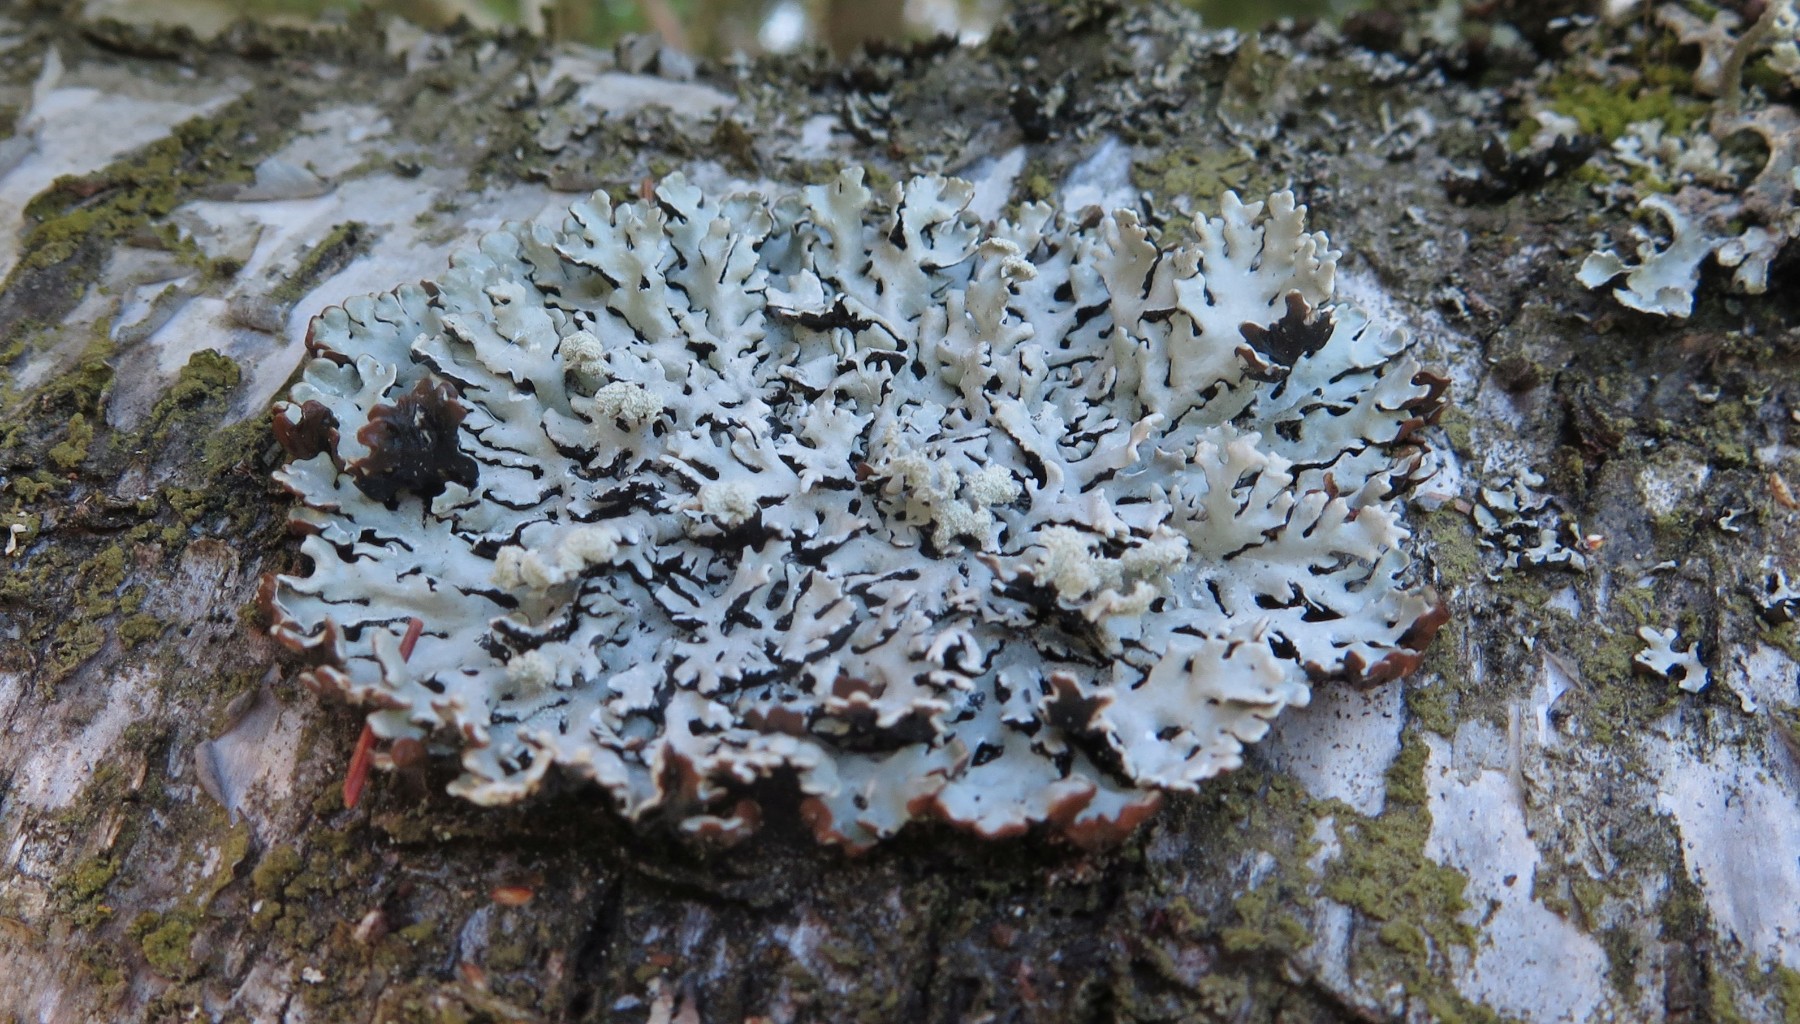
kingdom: Fungi
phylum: Ascomycota
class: Lecanoromycetes
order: Lecanorales
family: Parmeliaceae
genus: Hypogymnia
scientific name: Hypogymnia physodes
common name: almindelig kvistlav
